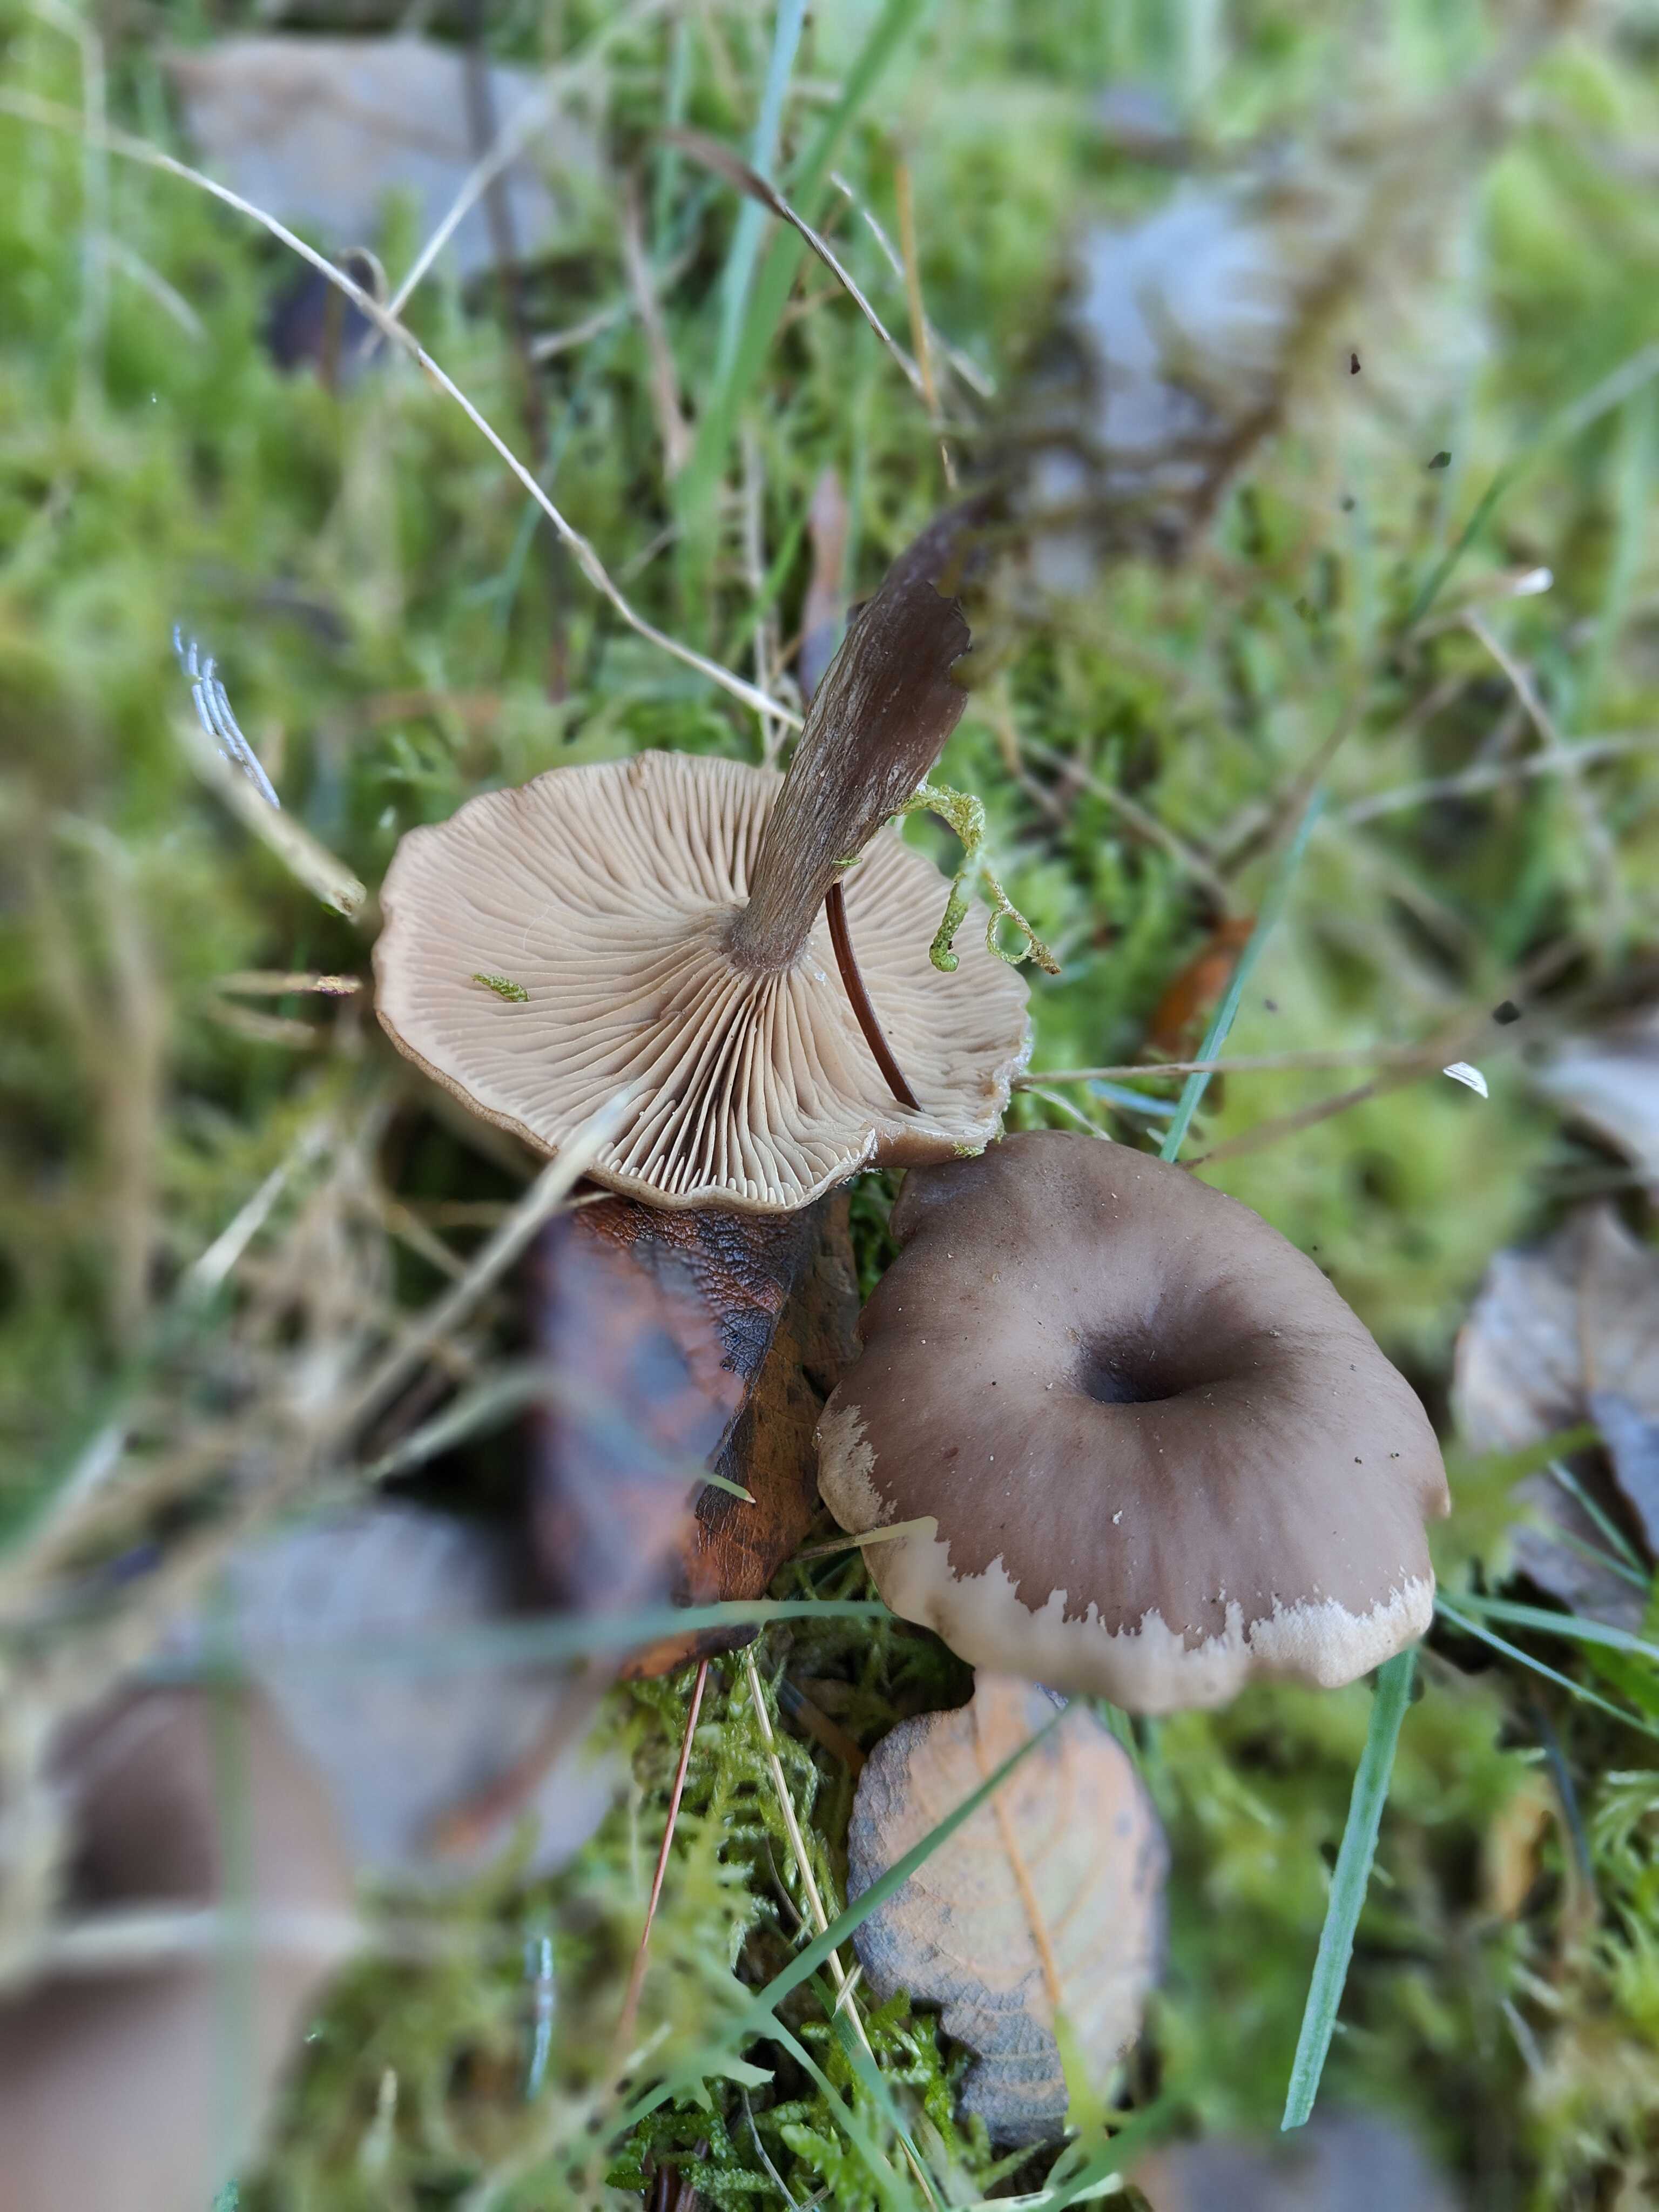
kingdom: Fungi
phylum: Basidiomycota
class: Agaricomycetes
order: Agaricales
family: Pseudoclitocybaceae
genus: Pseudoclitocybe
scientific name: Pseudoclitocybe cyathiformis
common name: almindelig bægertragthat
